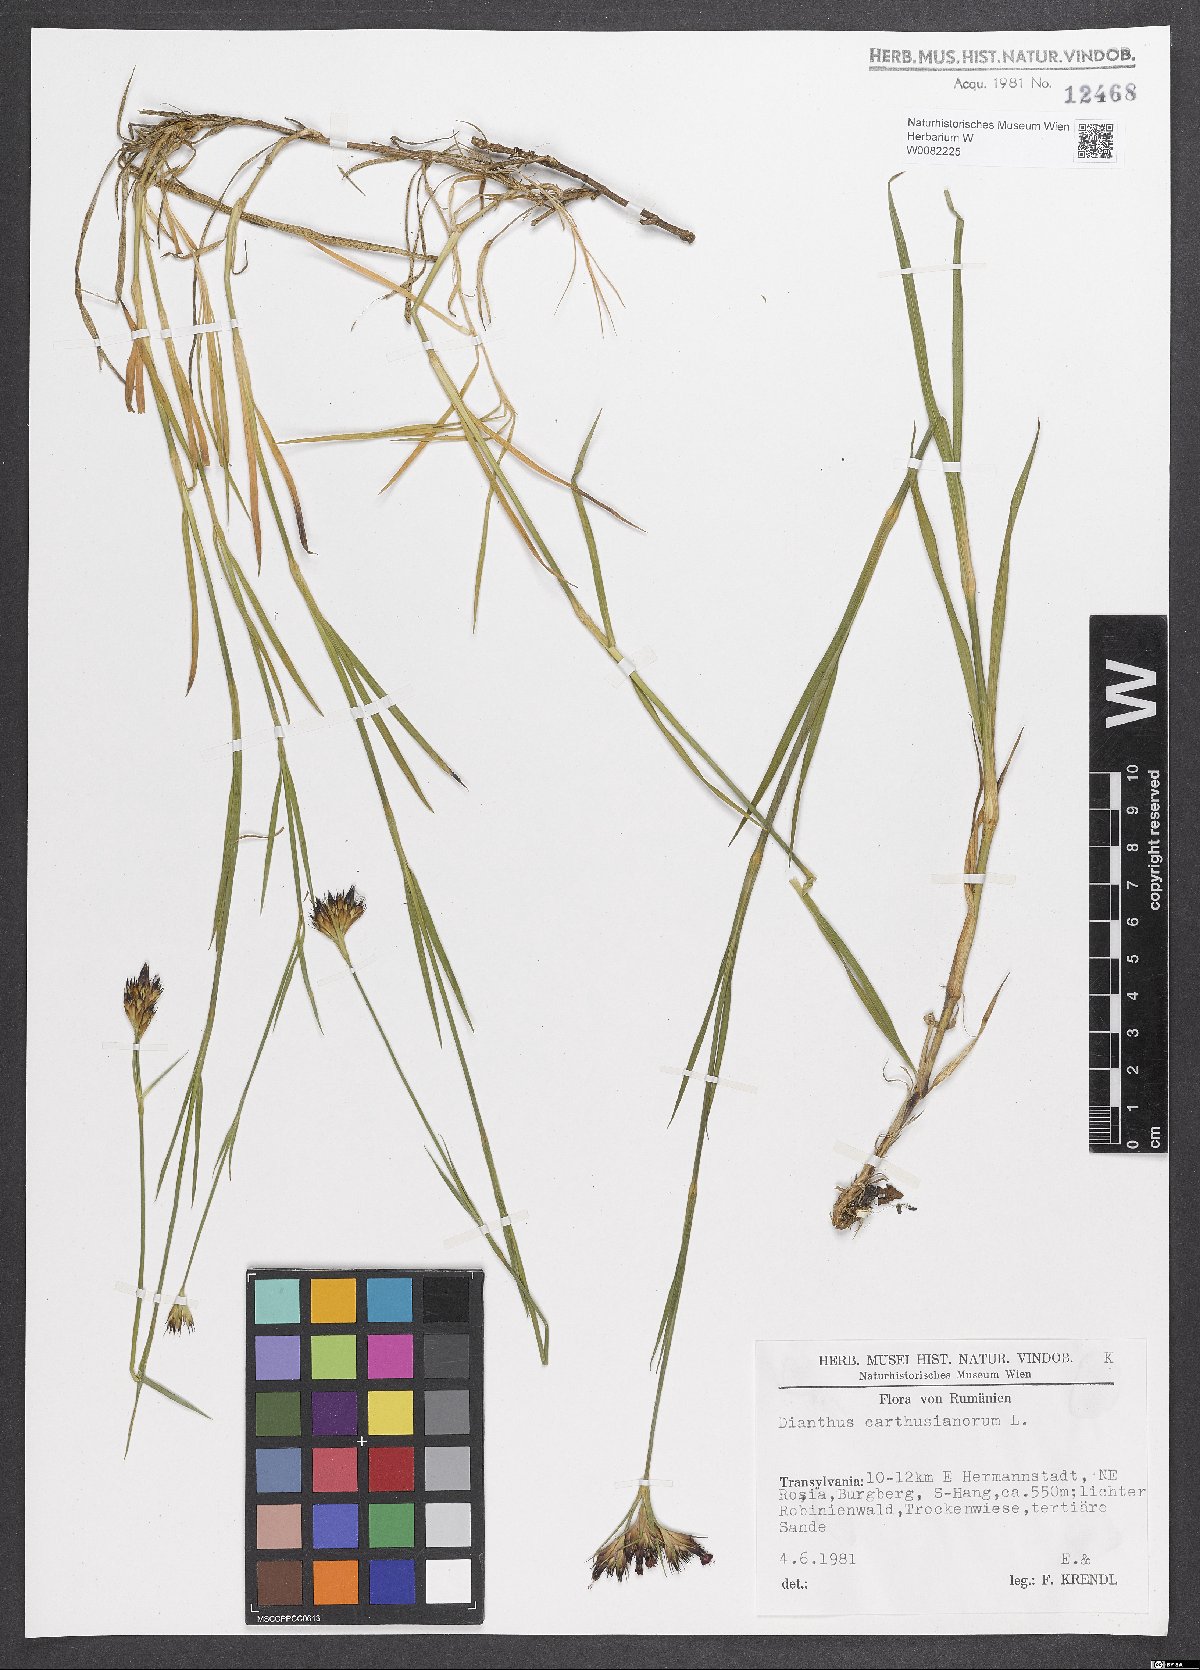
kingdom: Plantae
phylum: Tracheophyta
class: Magnoliopsida
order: Caryophyllales
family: Caryophyllaceae
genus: Dianthus
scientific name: Dianthus carthusianorum
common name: Carthusian pink
